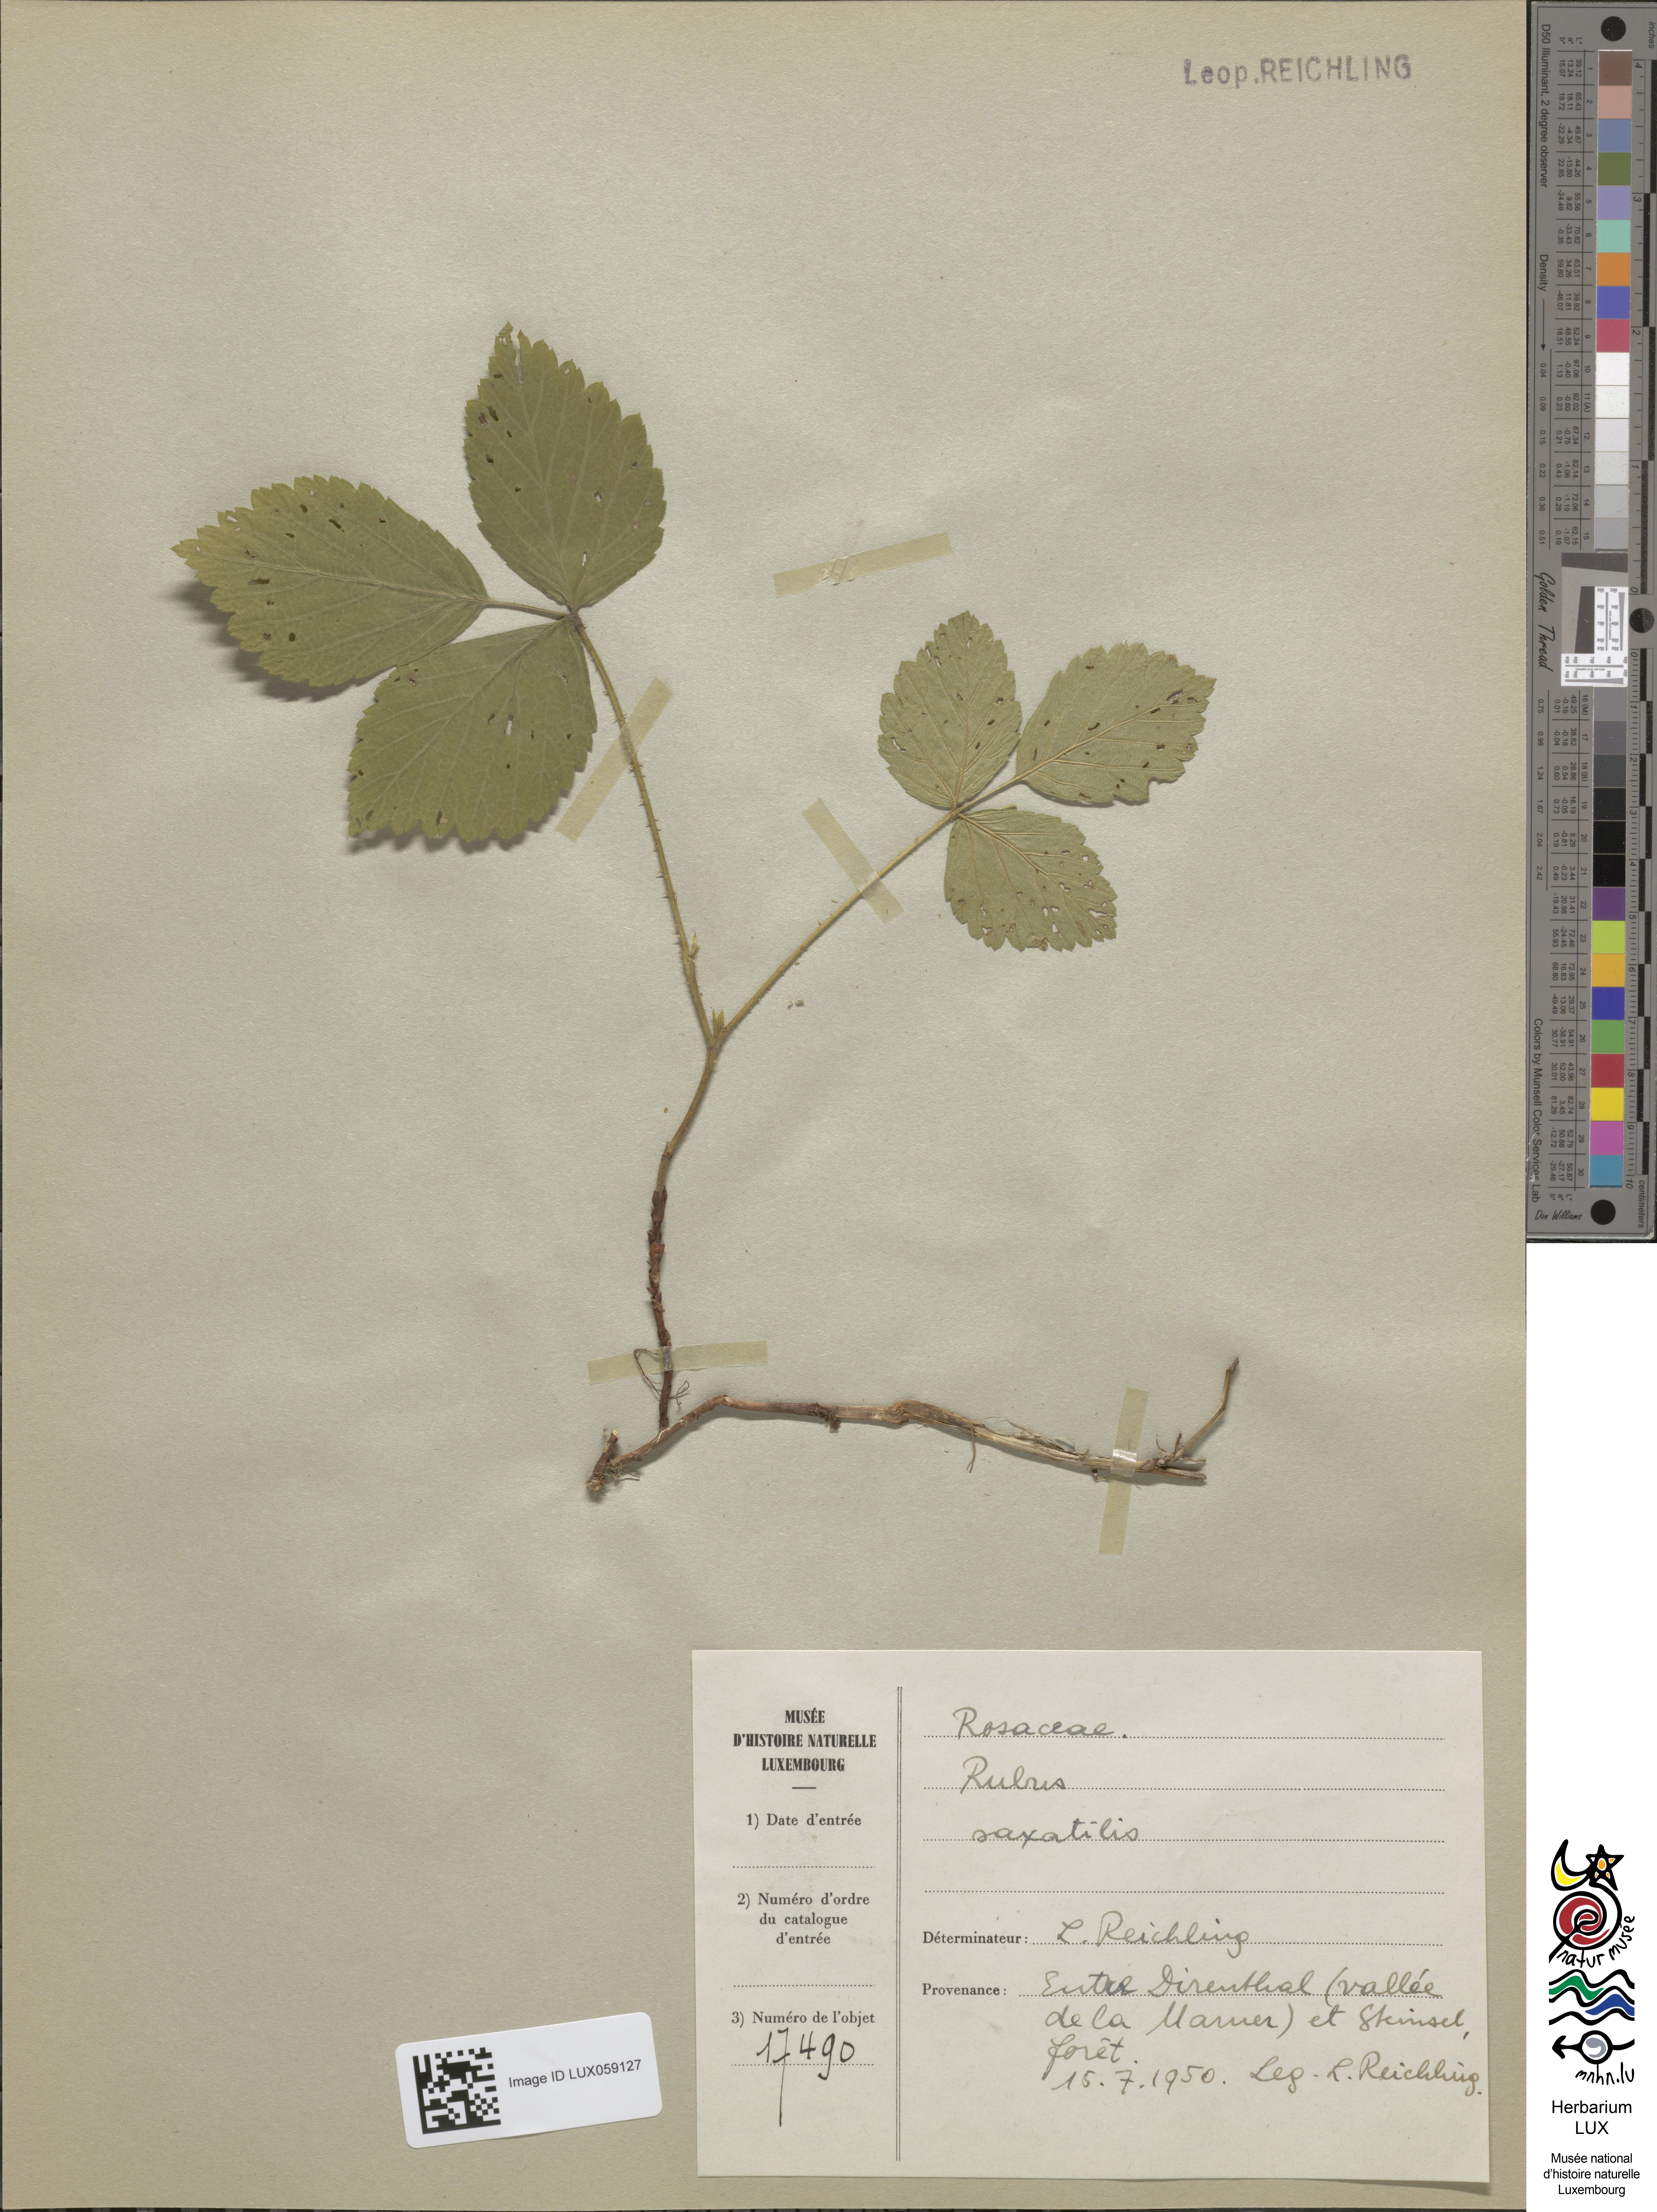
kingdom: Plantae
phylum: Tracheophyta
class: Magnoliopsida
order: Rosales
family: Rosaceae
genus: Rubus
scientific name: Rubus saxatilis
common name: Stone bramble
